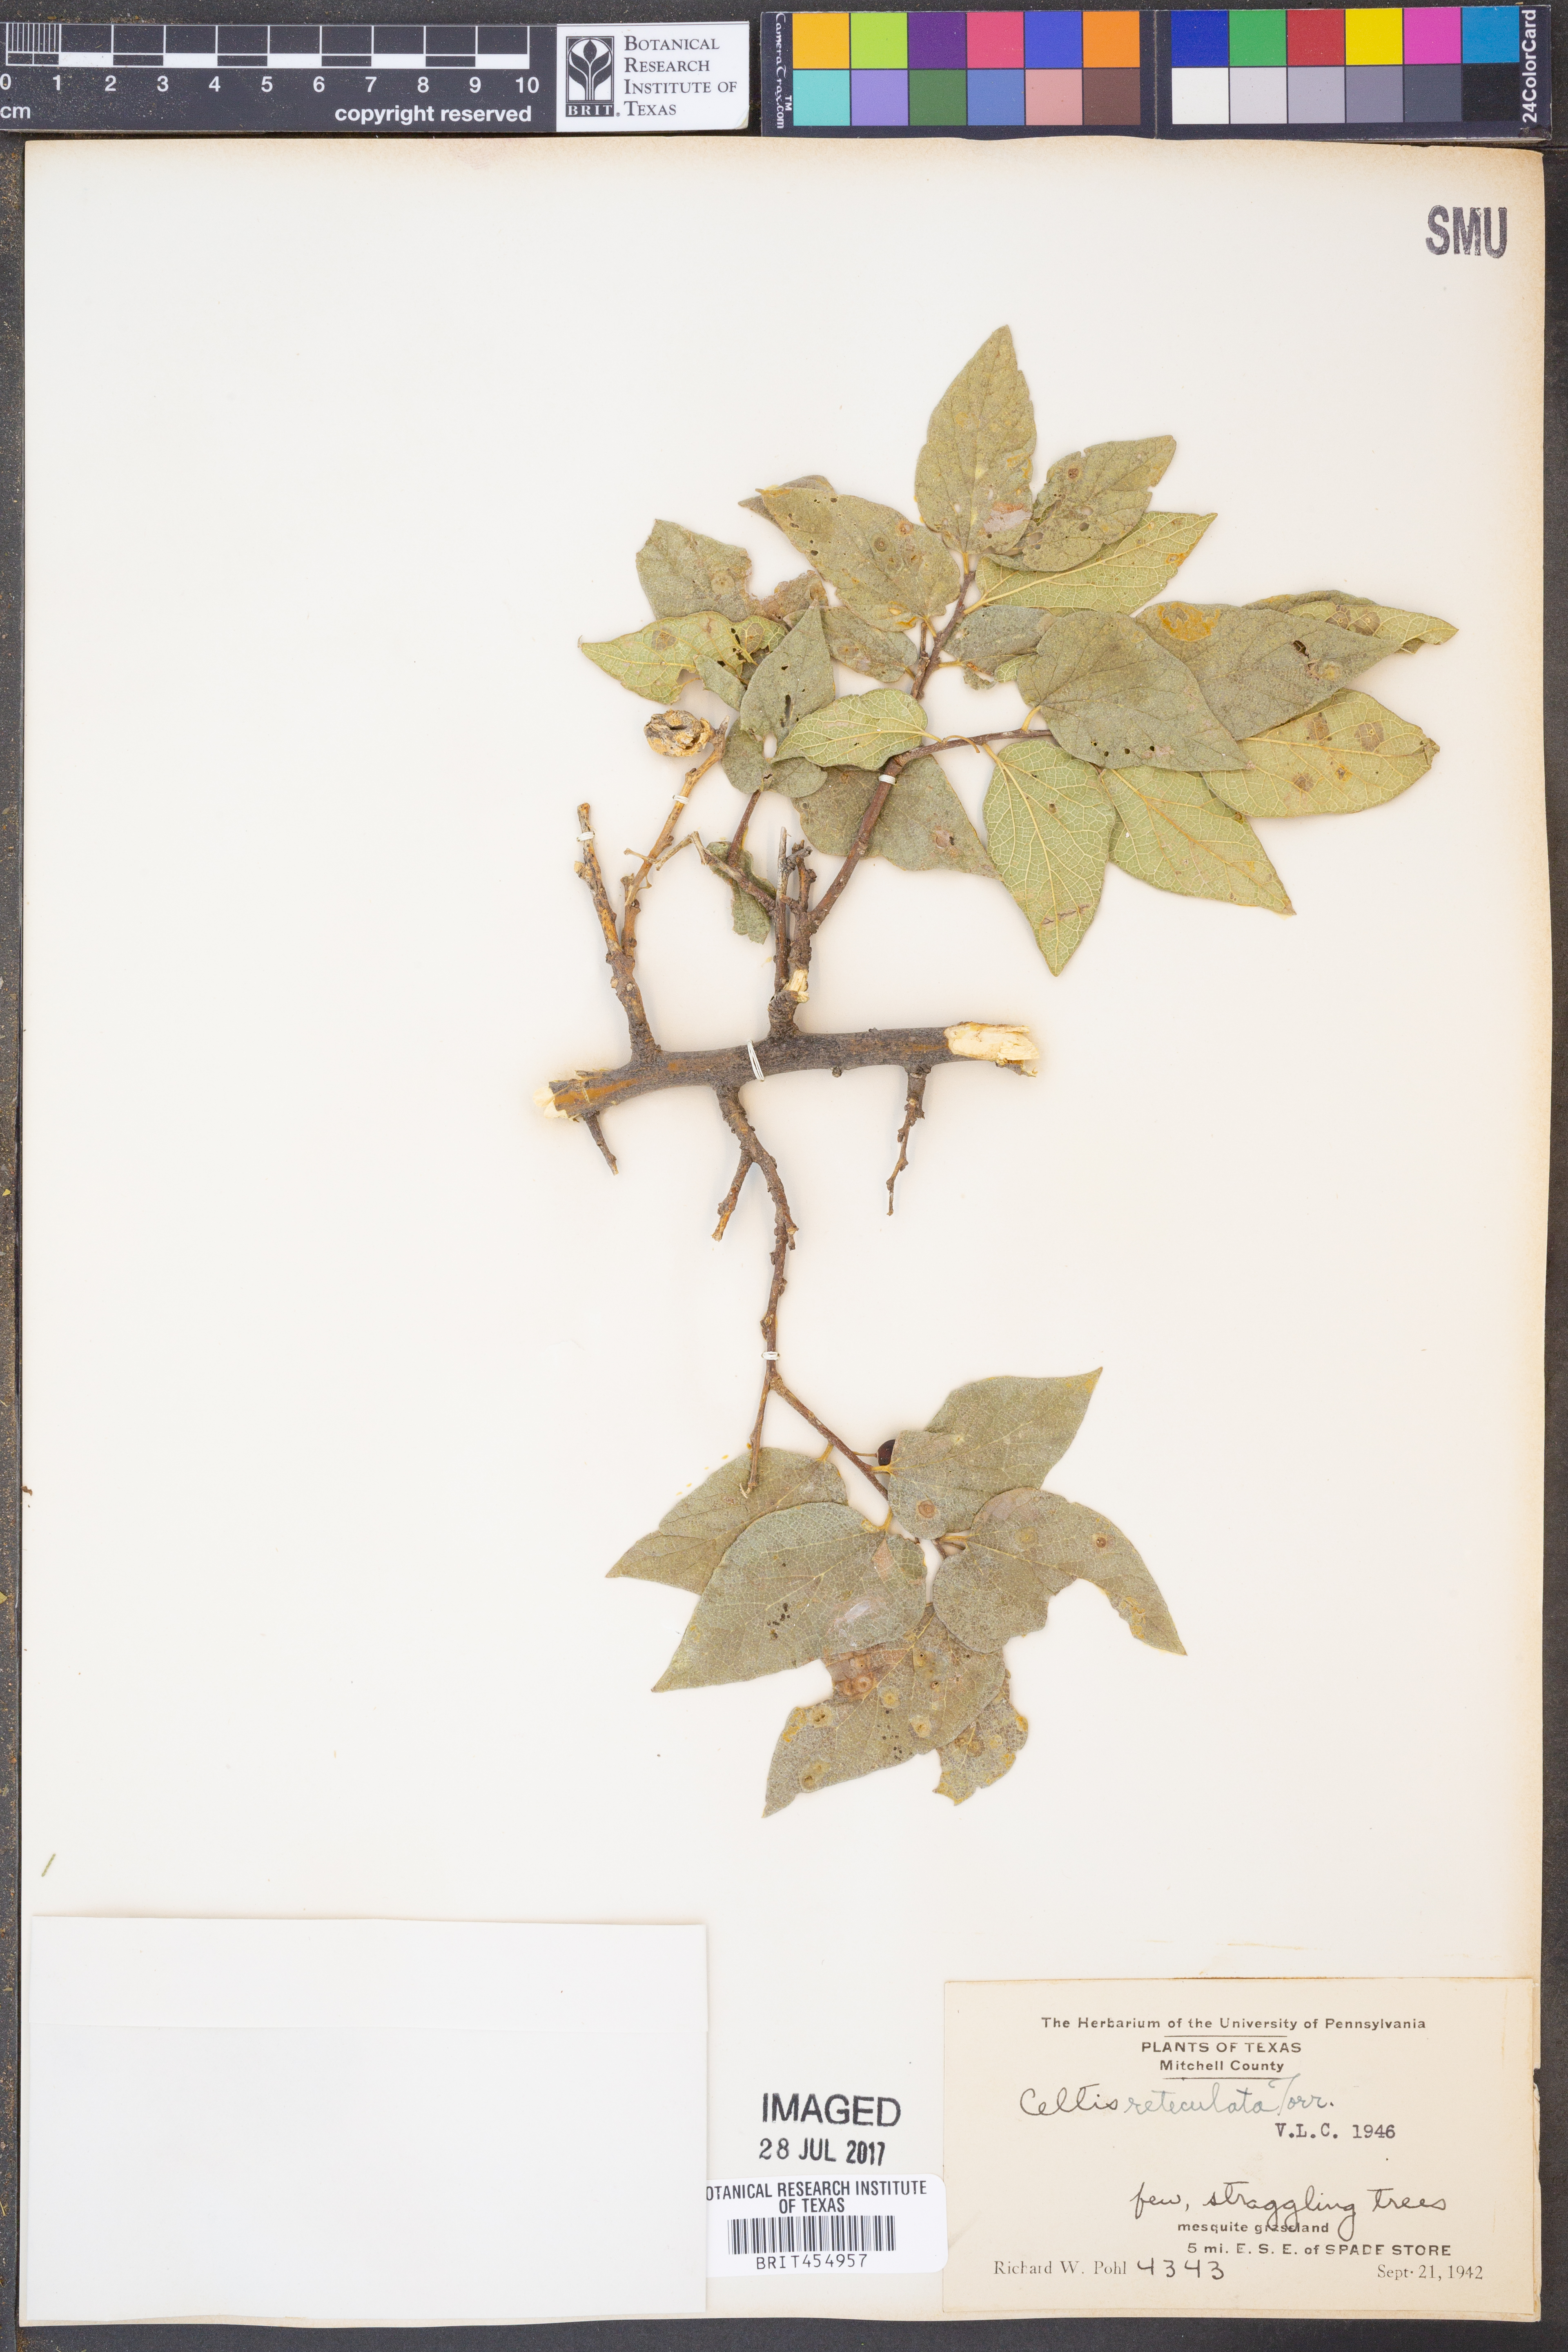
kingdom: Plantae
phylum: Tracheophyta
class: Magnoliopsida
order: Rosales
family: Cannabaceae
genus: Celtis
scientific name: Celtis reticulata
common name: Netleaf hackberry
